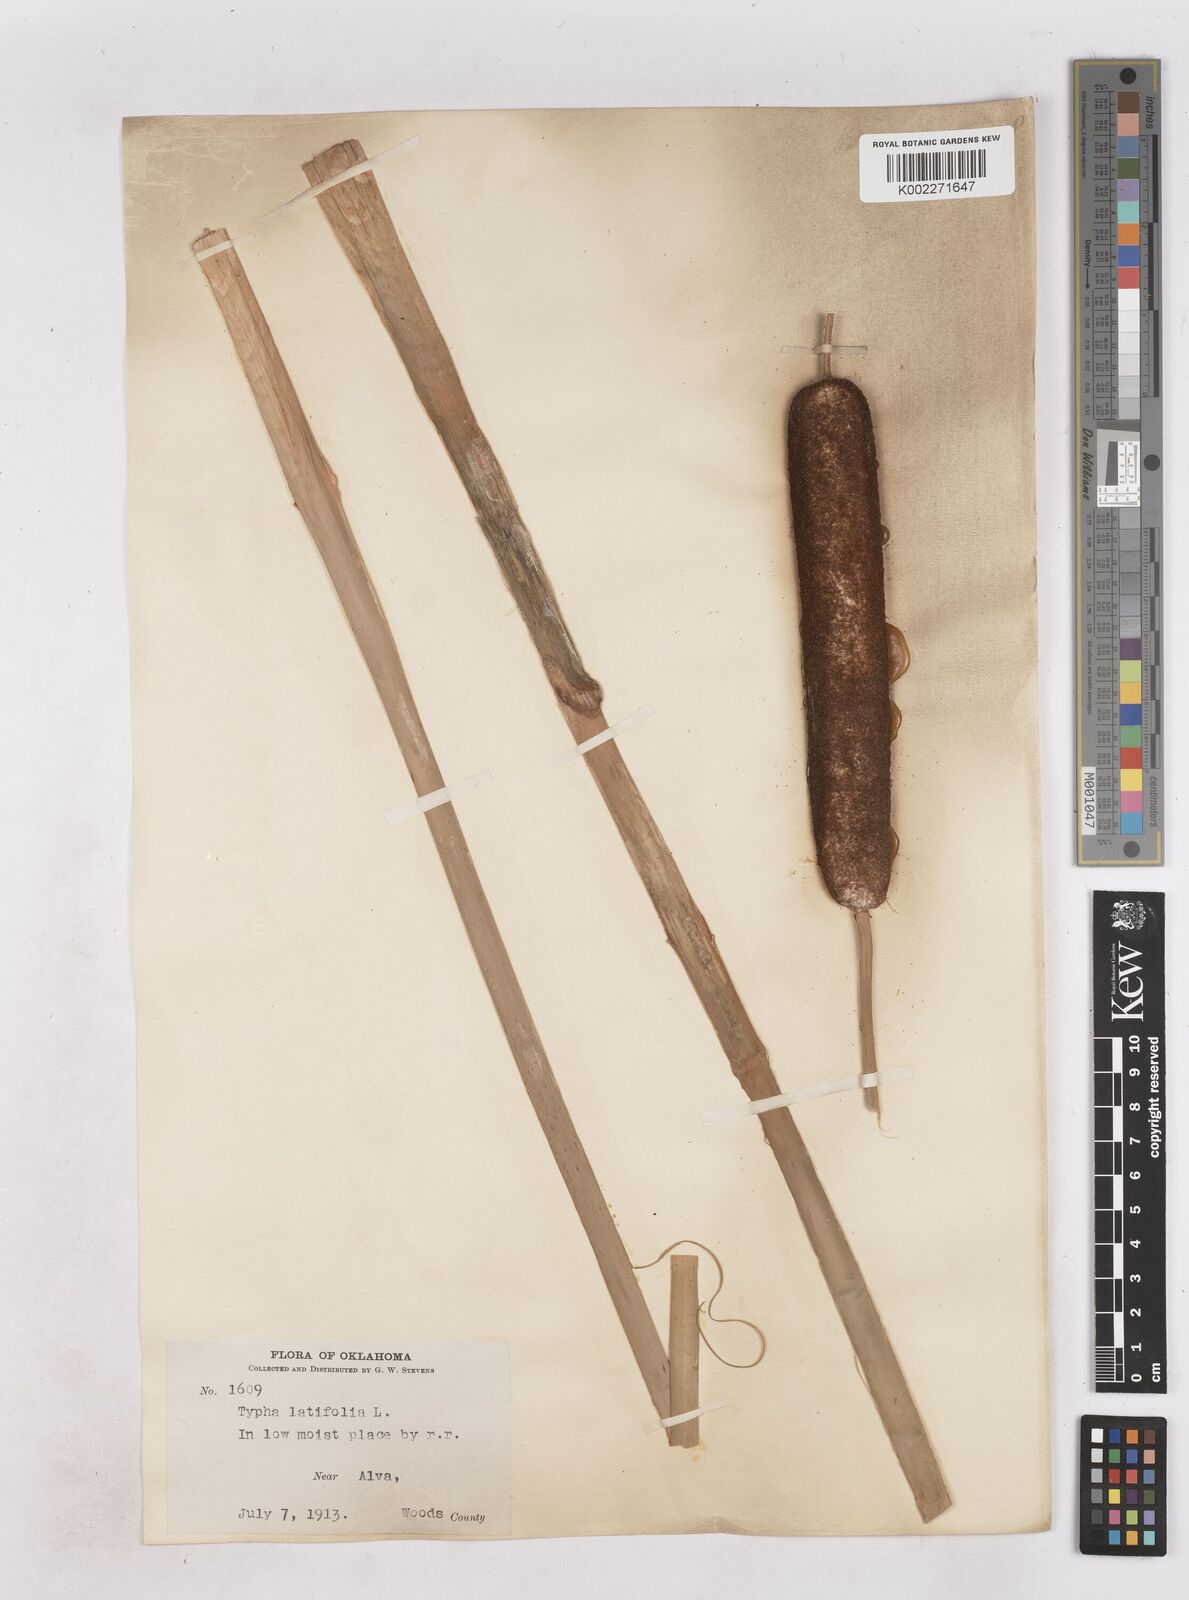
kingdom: Plantae
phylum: Tracheophyta
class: Liliopsida
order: Poales
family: Typhaceae
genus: Typha
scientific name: Typha latifolia
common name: Broadleaf cattail
